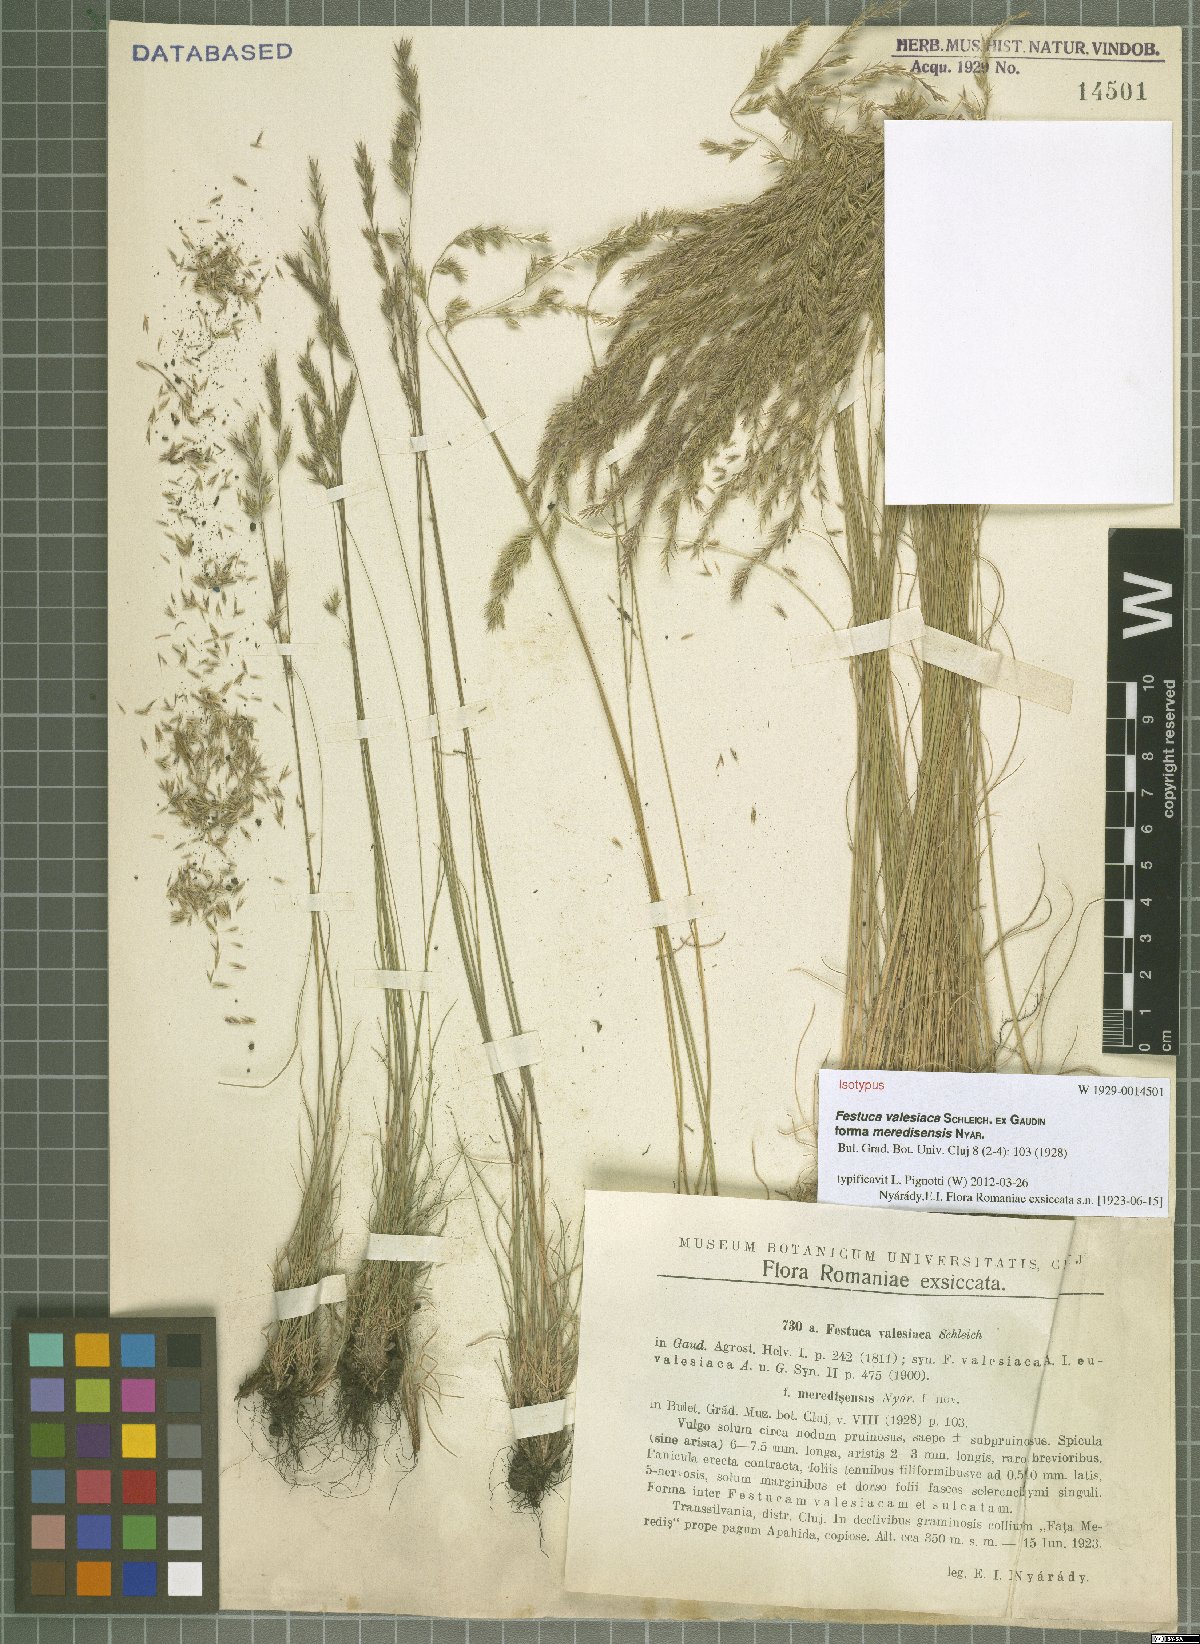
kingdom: Plantae
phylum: Tracheophyta
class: Liliopsida
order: Poales
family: Poaceae
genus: Festuca
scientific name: Festuca valesiaca
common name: Volga fescue
